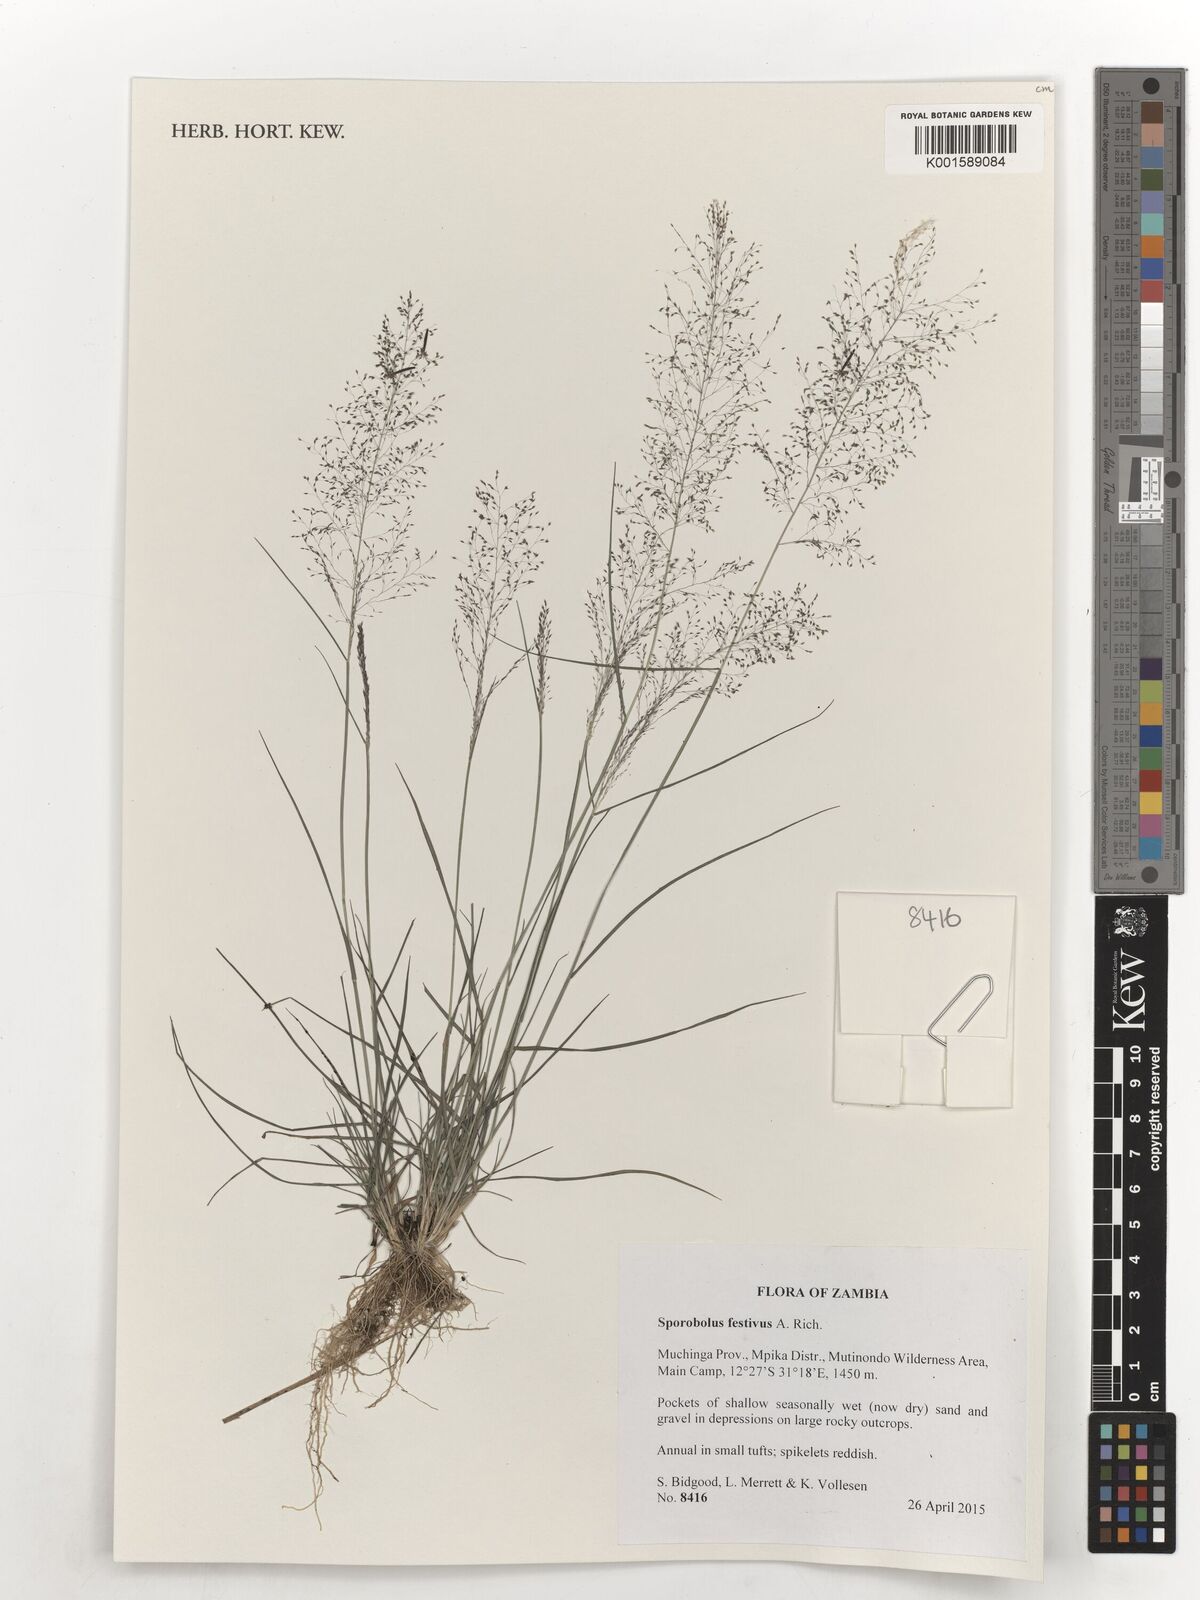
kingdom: Plantae
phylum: Tracheophyta
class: Liliopsida
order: Poales
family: Poaceae
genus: Sporobolus
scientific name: Sporobolus festivus
